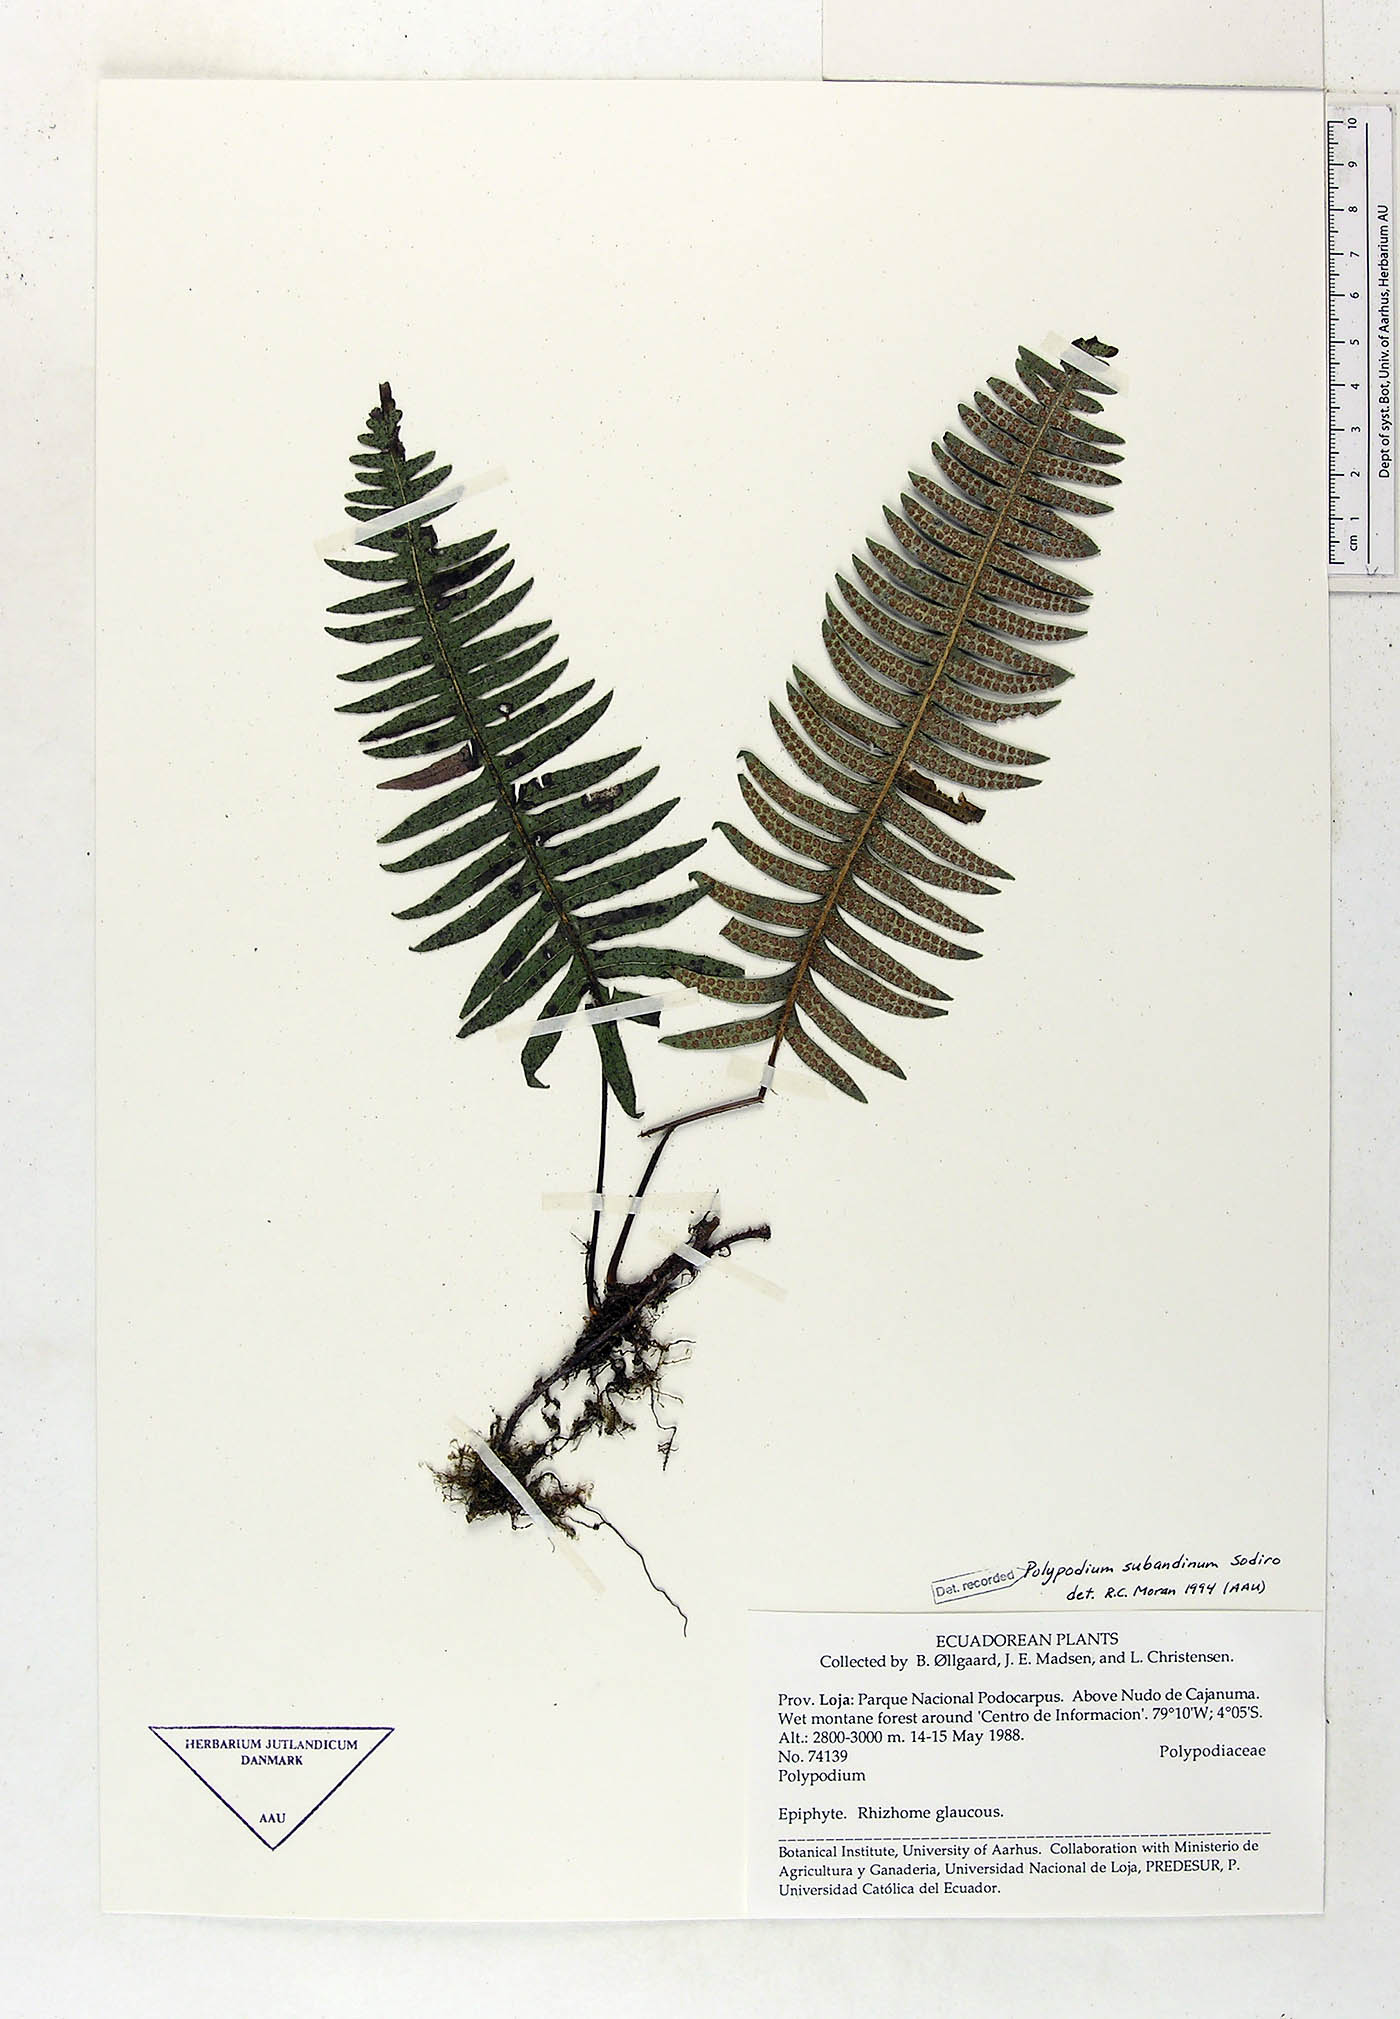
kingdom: Plantae
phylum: Tracheophyta
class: Polypodiopsida
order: Polypodiales
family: Polypodiaceae
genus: Serpocaulon
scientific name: Serpocaulon subandinum
